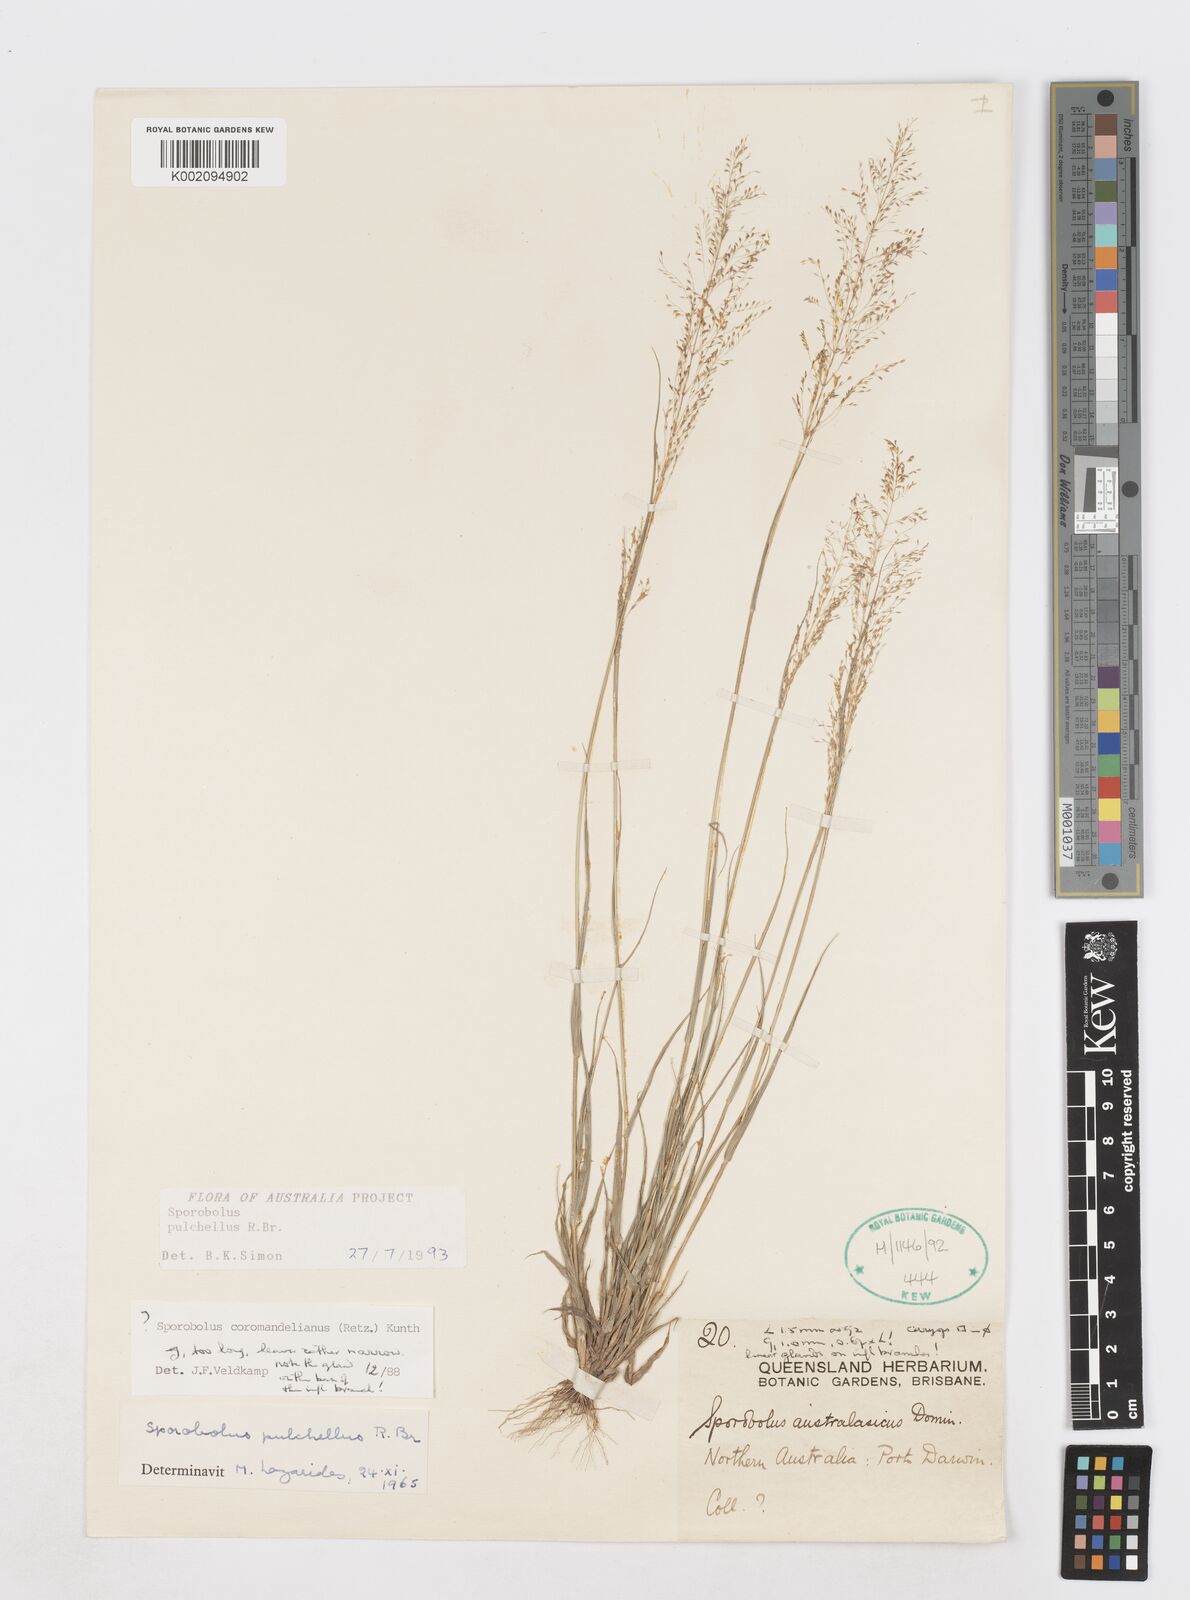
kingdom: Plantae
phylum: Tracheophyta
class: Liliopsida
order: Poales
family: Poaceae
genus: Sporobolus
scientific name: Sporobolus pulchellus
